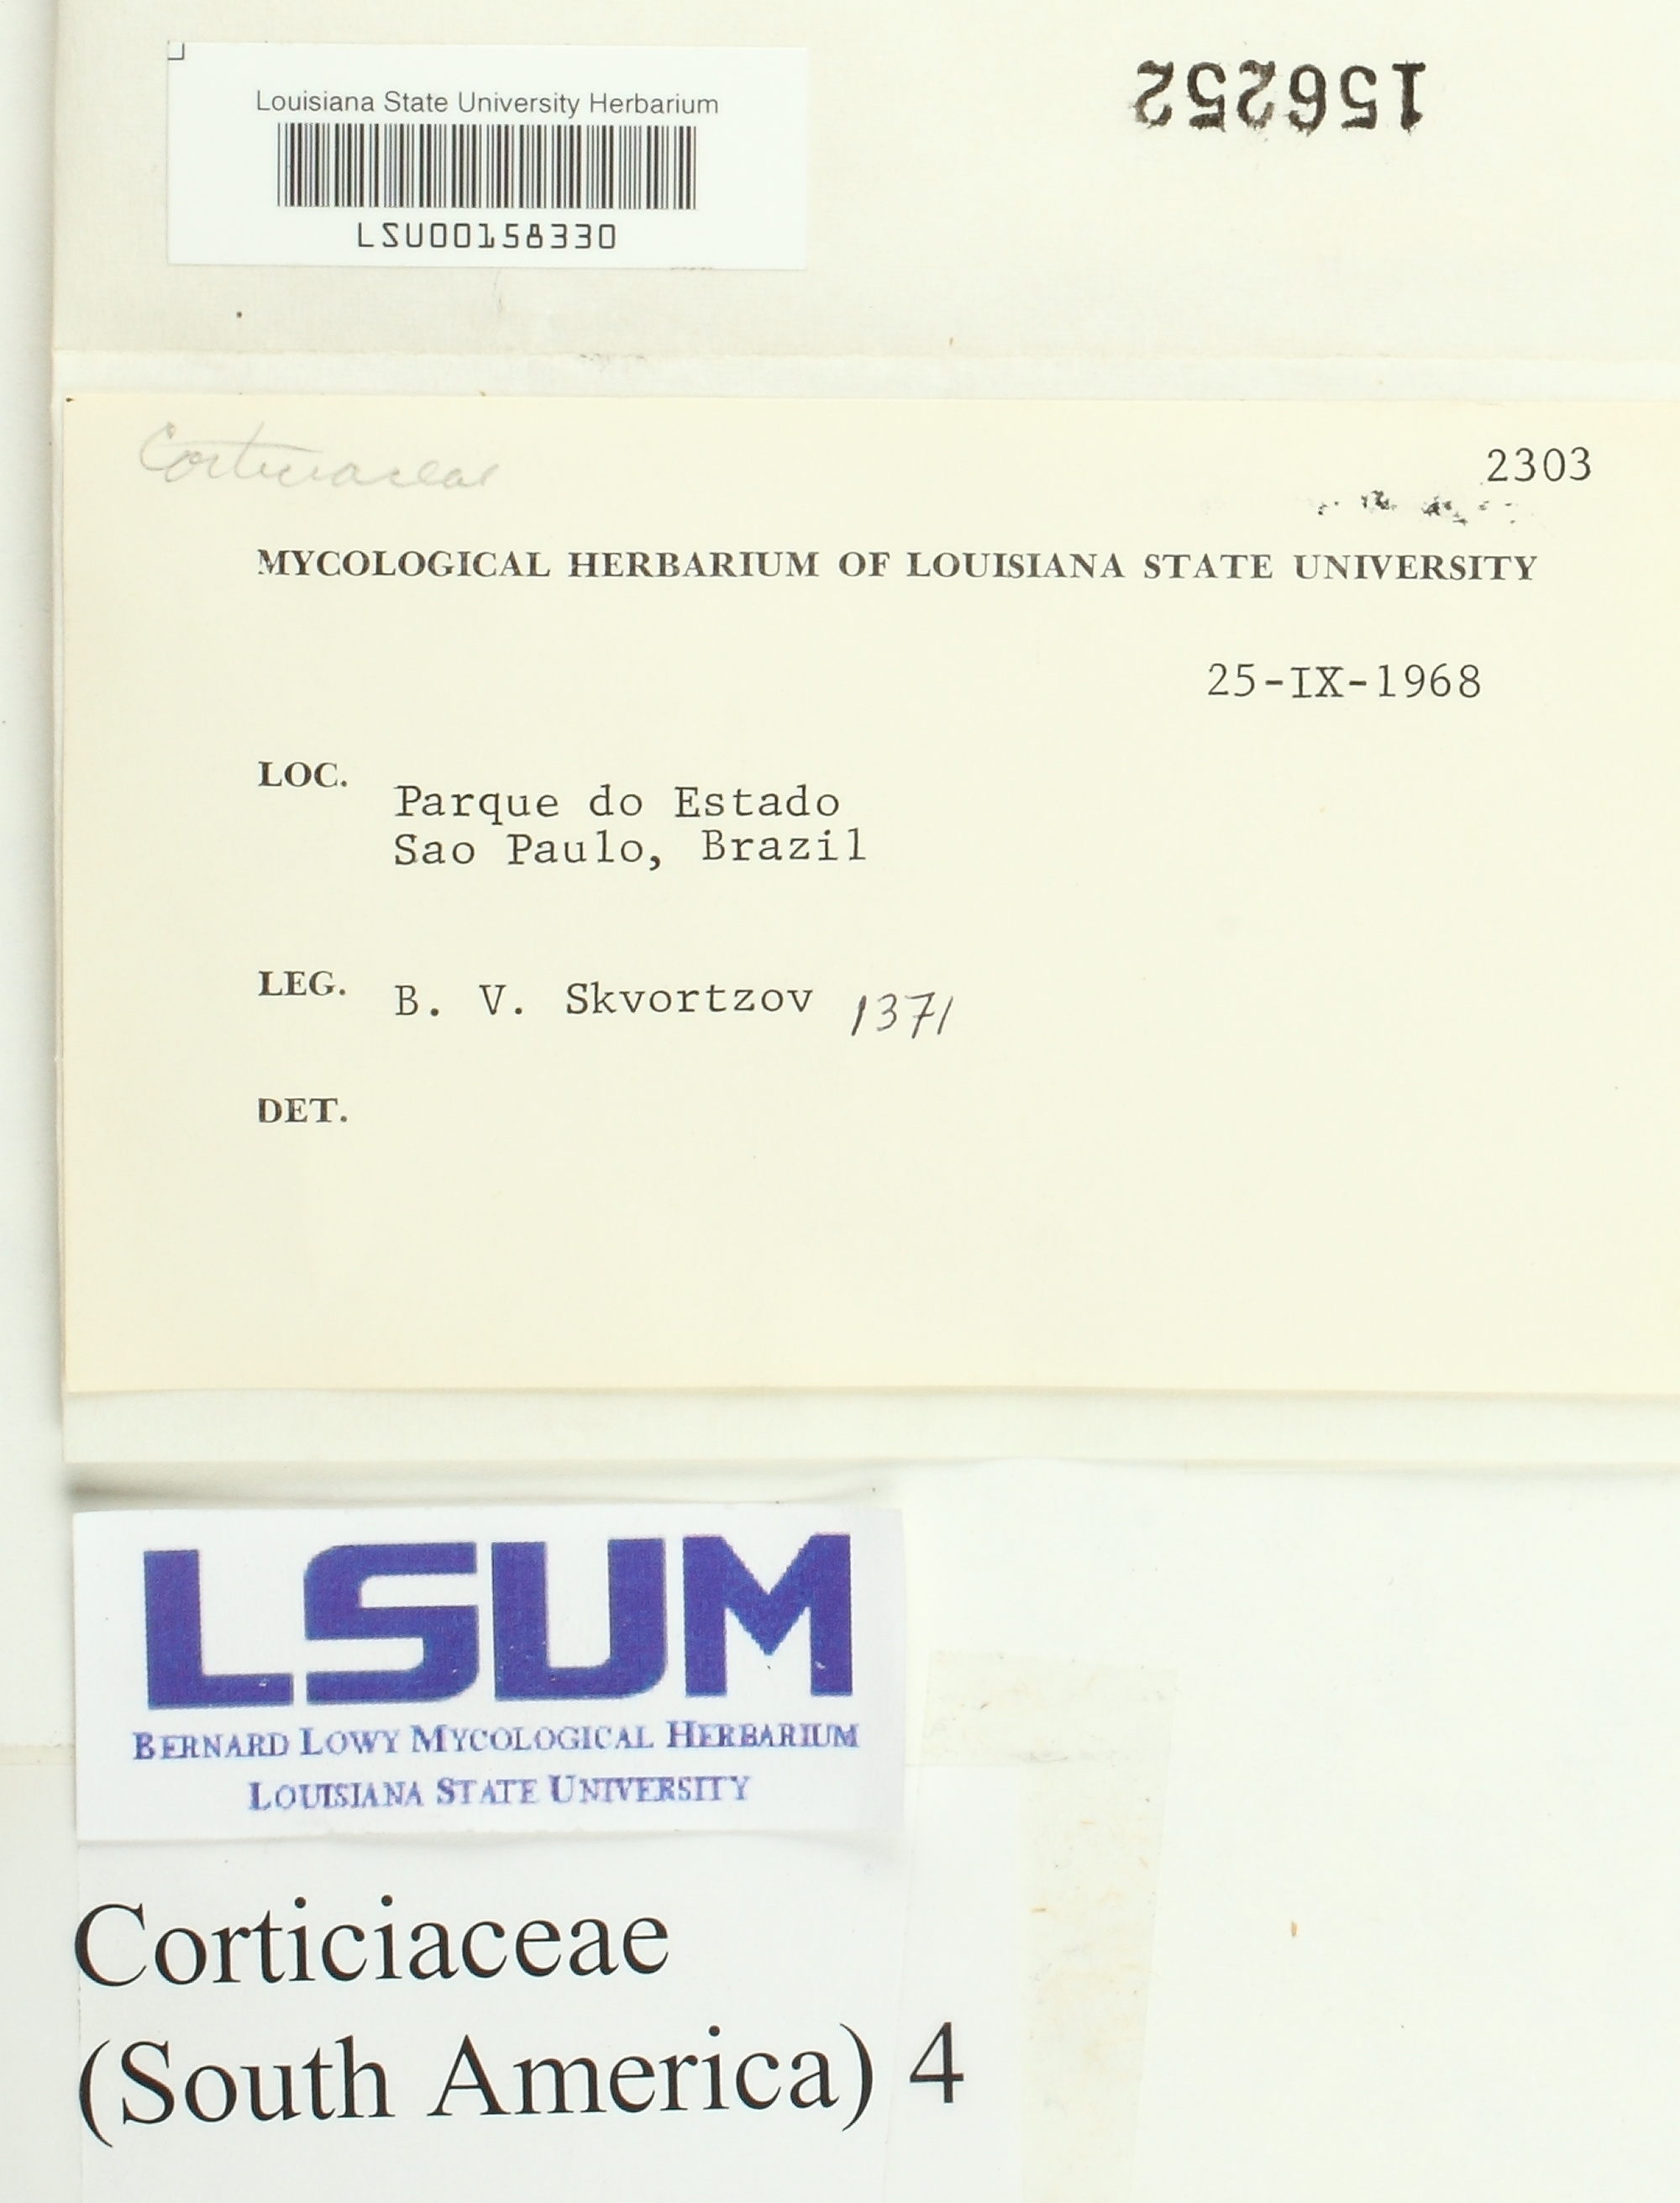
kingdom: Fungi
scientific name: Fungi
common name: Fungi
